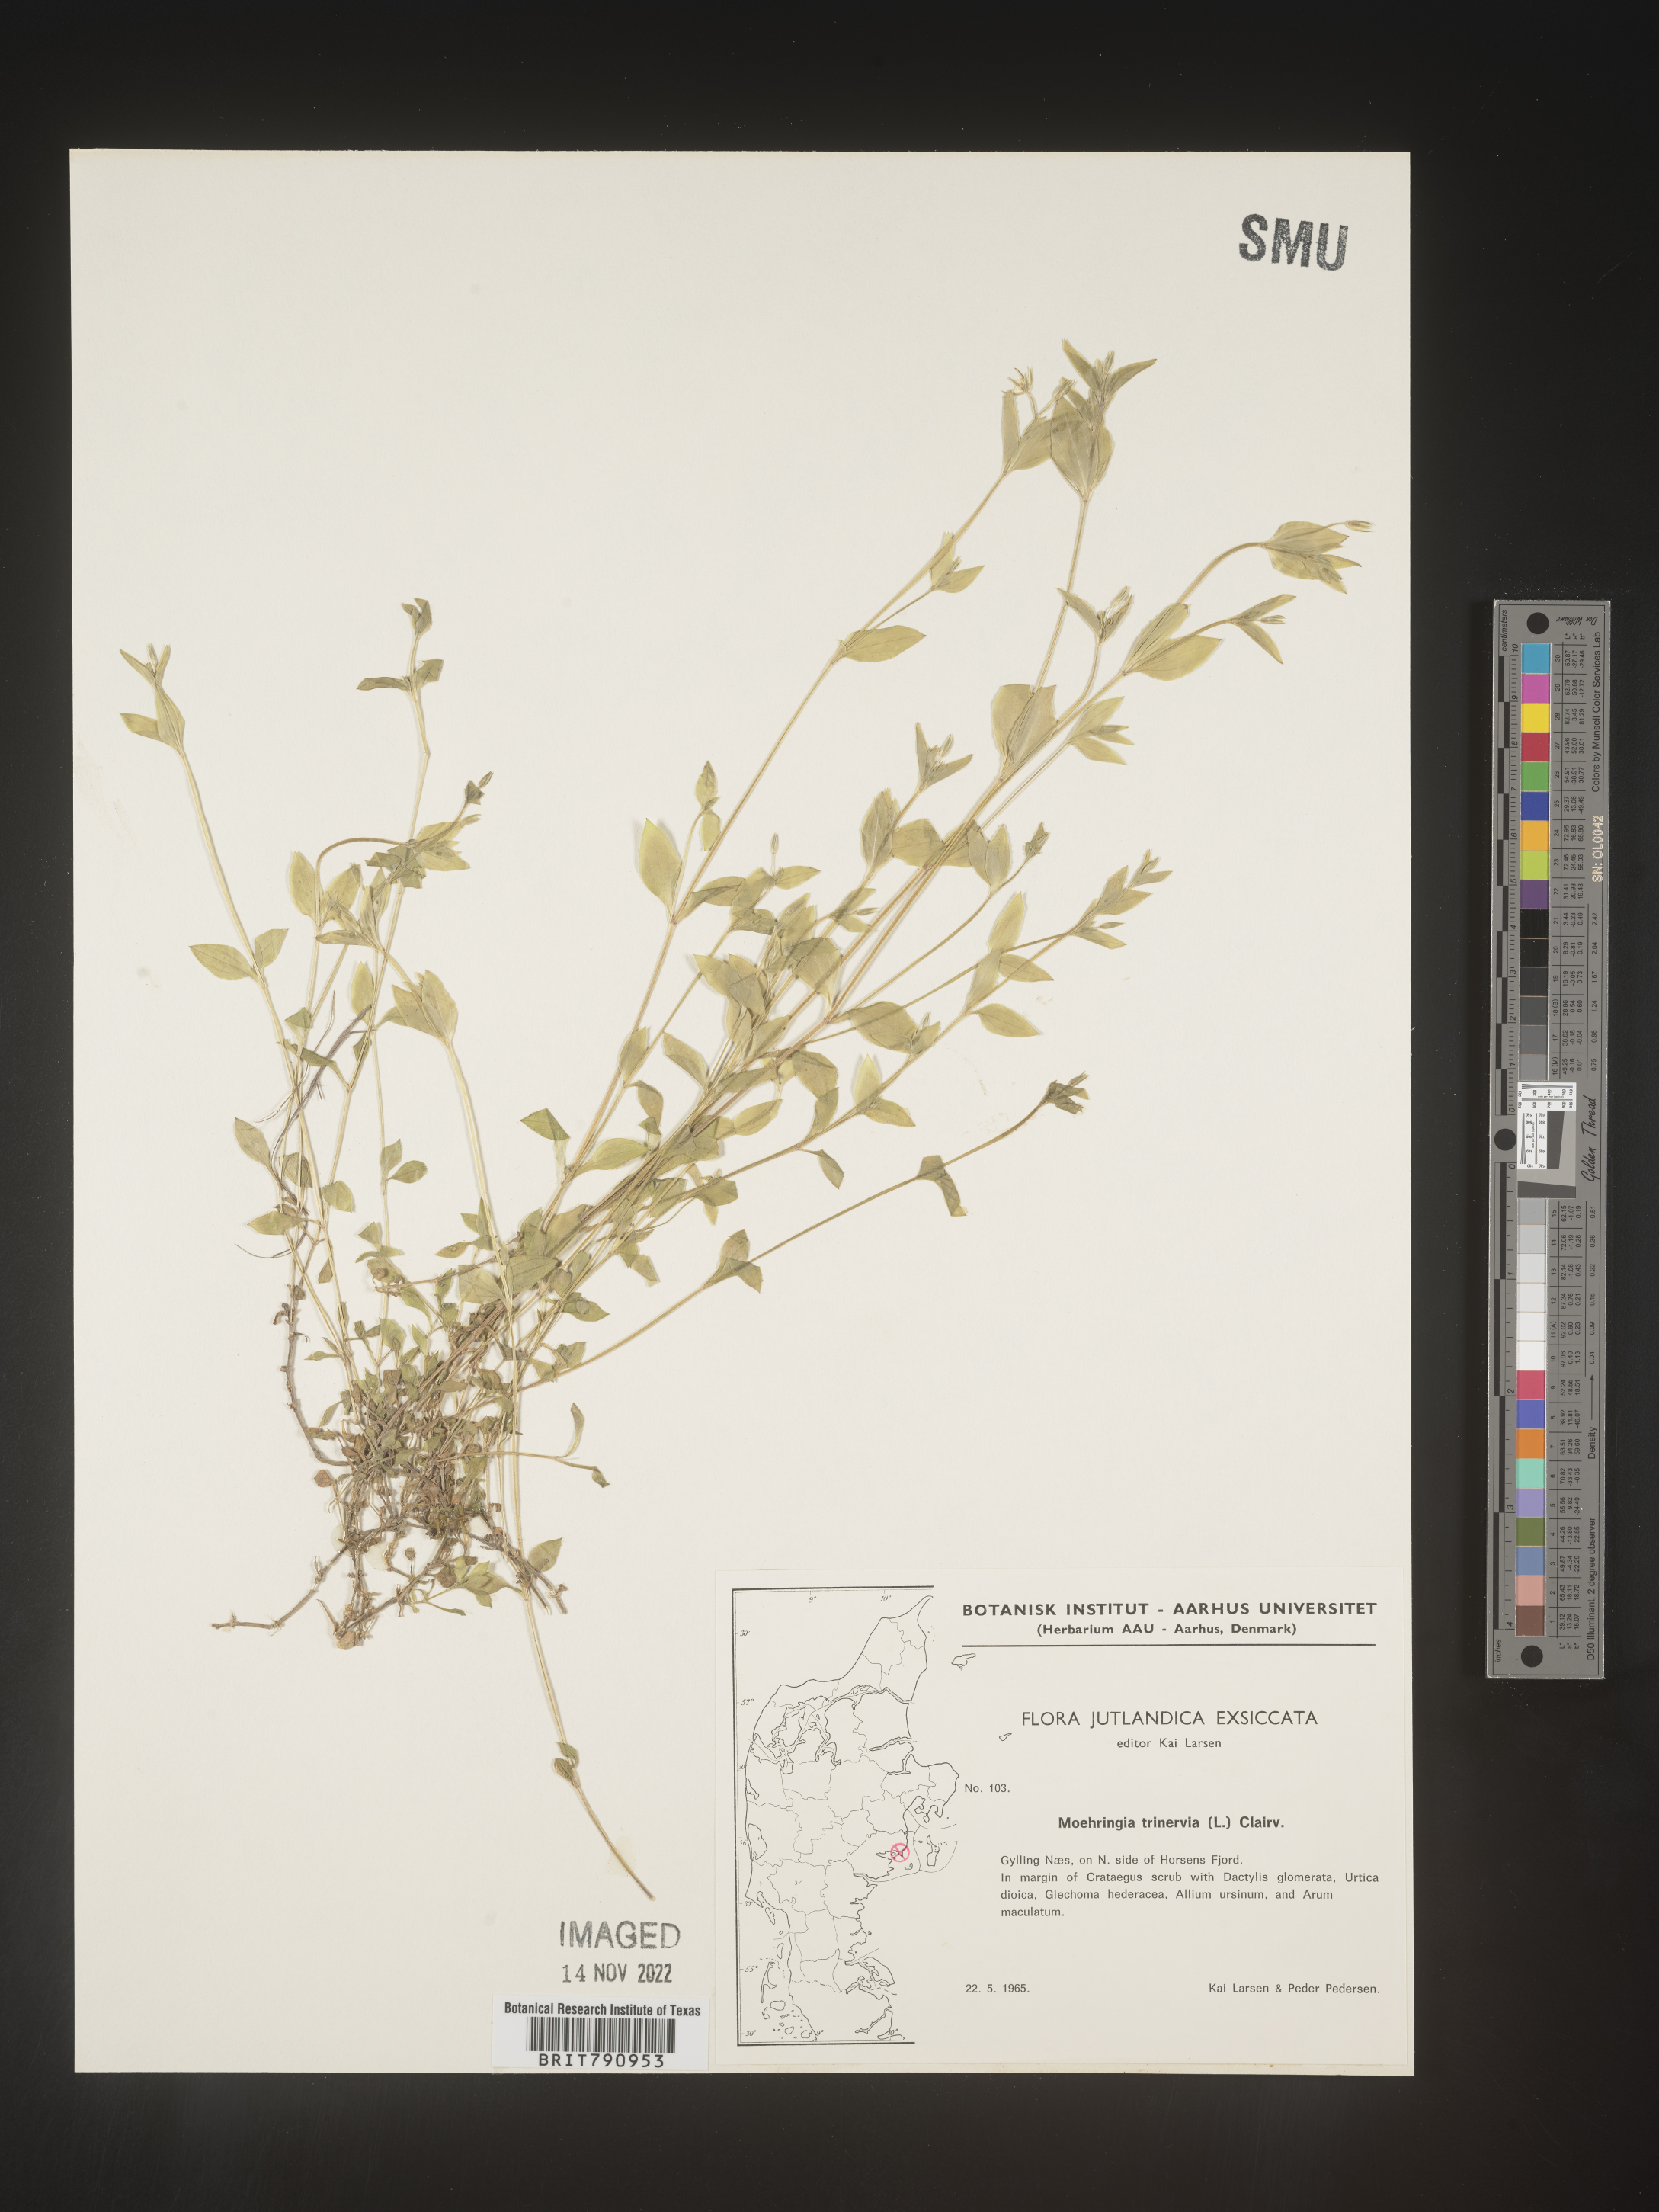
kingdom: Plantae
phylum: Tracheophyta
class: Magnoliopsida
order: Caryophyllales
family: Caryophyllaceae
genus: Moehringia
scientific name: Moehringia
